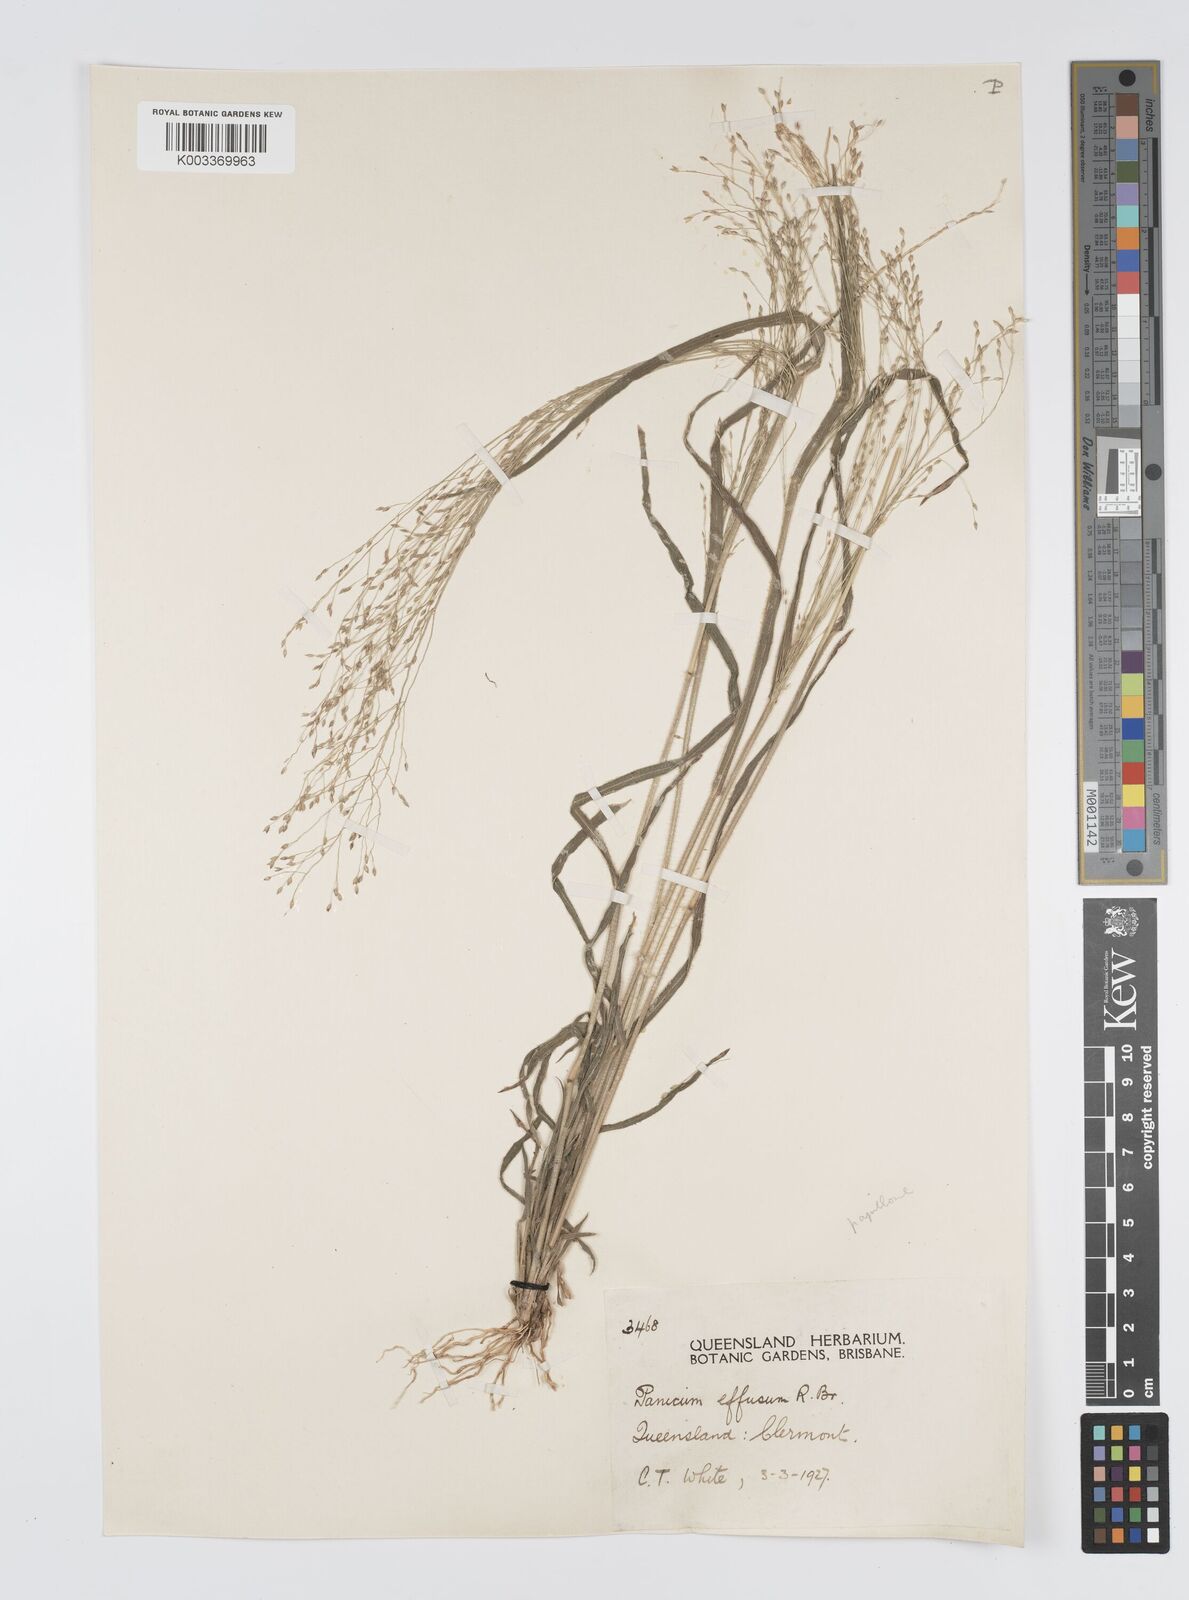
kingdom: Plantae
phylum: Tracheophyta
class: Liliopsida
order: Poales
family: Poaceae
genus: Panicum
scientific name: Panicum effusum
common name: Hairy panic grass
